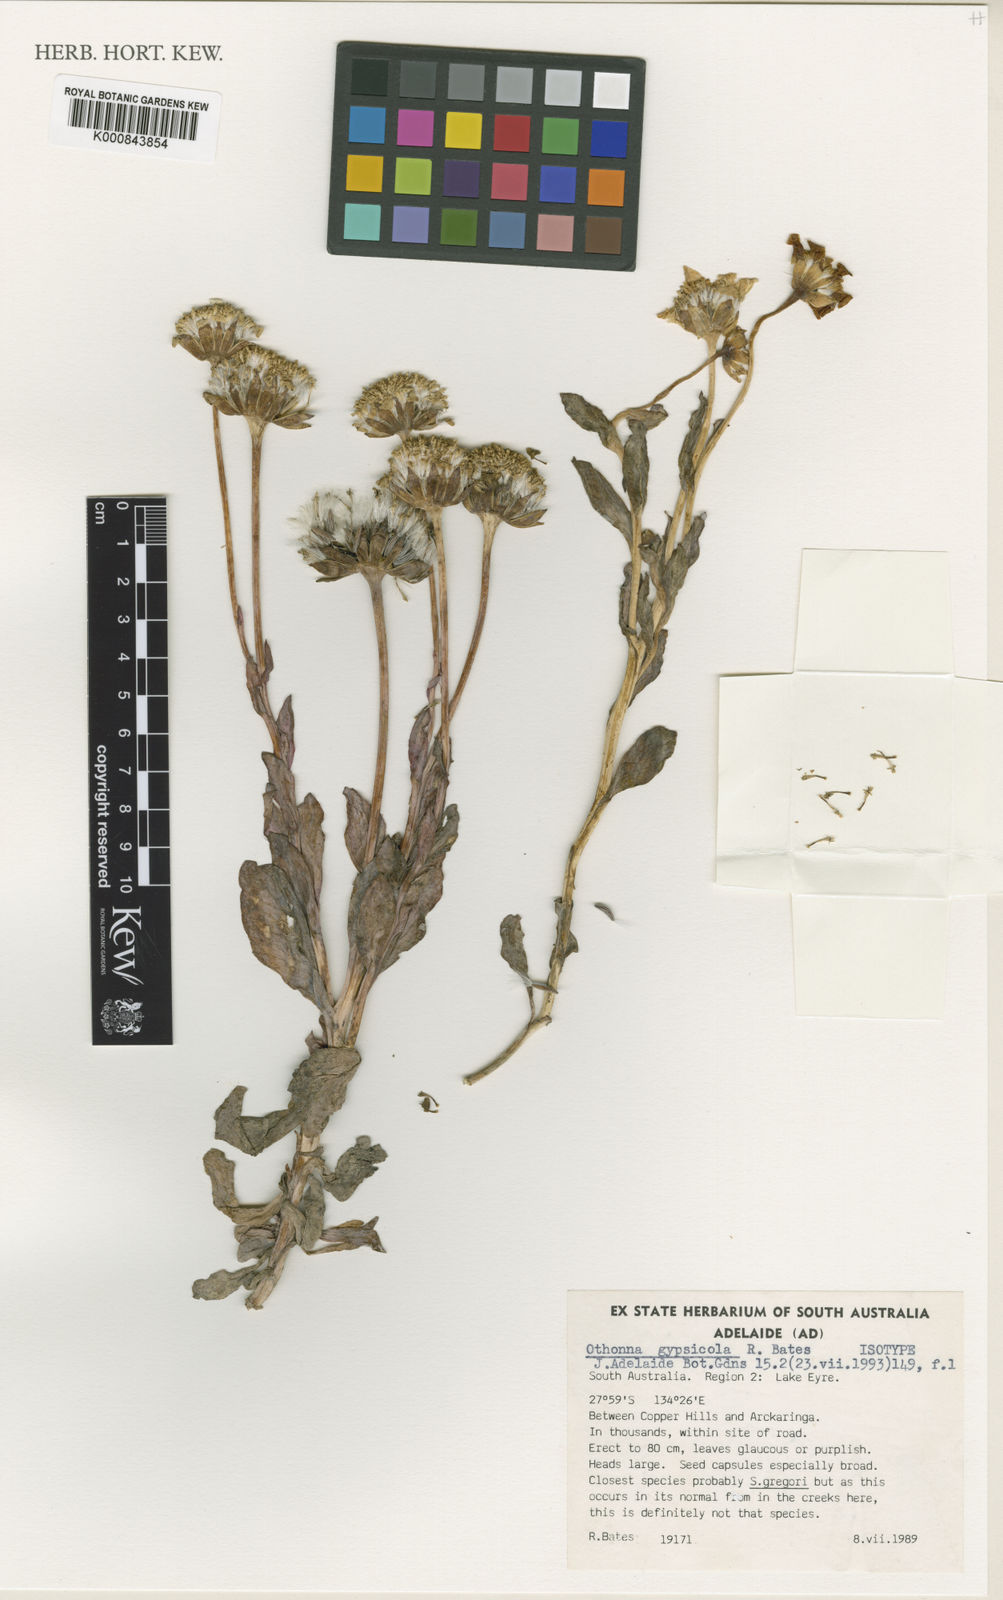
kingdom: Plantae
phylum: Tracheophyta
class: Magnoliopsida
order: Asterales
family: Asteraceae
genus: Senecio
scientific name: Senecio gypsicola
